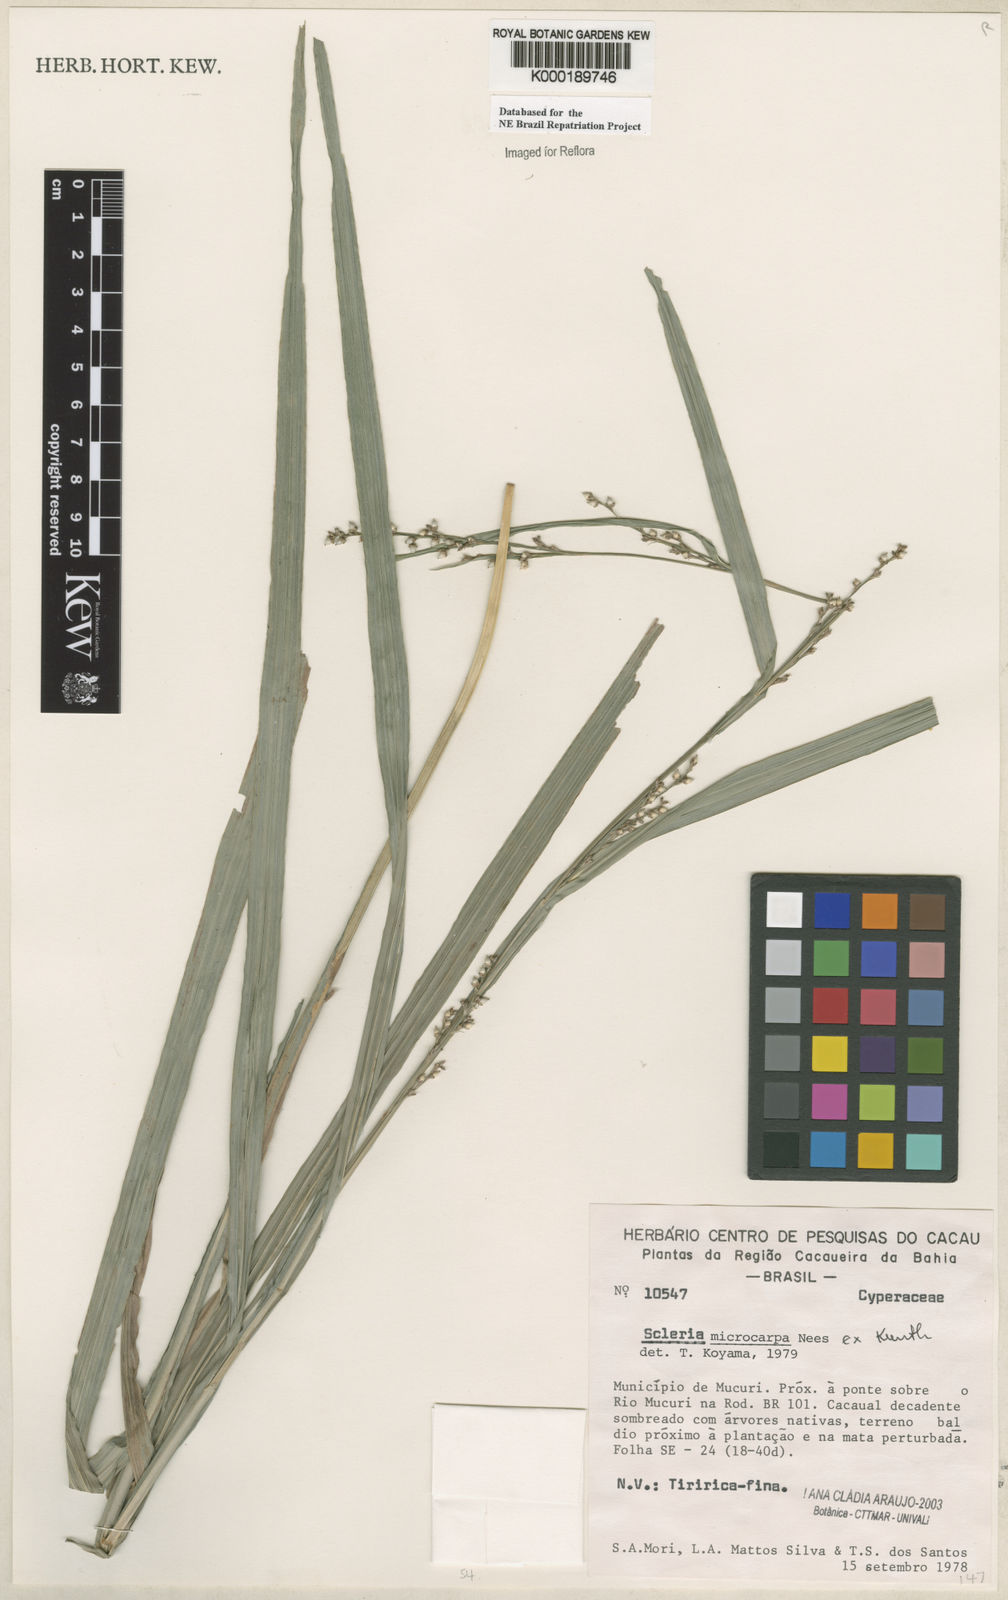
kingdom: Plantae
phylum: Tracheophyta
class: Liliopsida
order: Poales
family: Cyperaceae
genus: Scleria
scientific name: Scleria microcarpa
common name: Tropical nutrush
